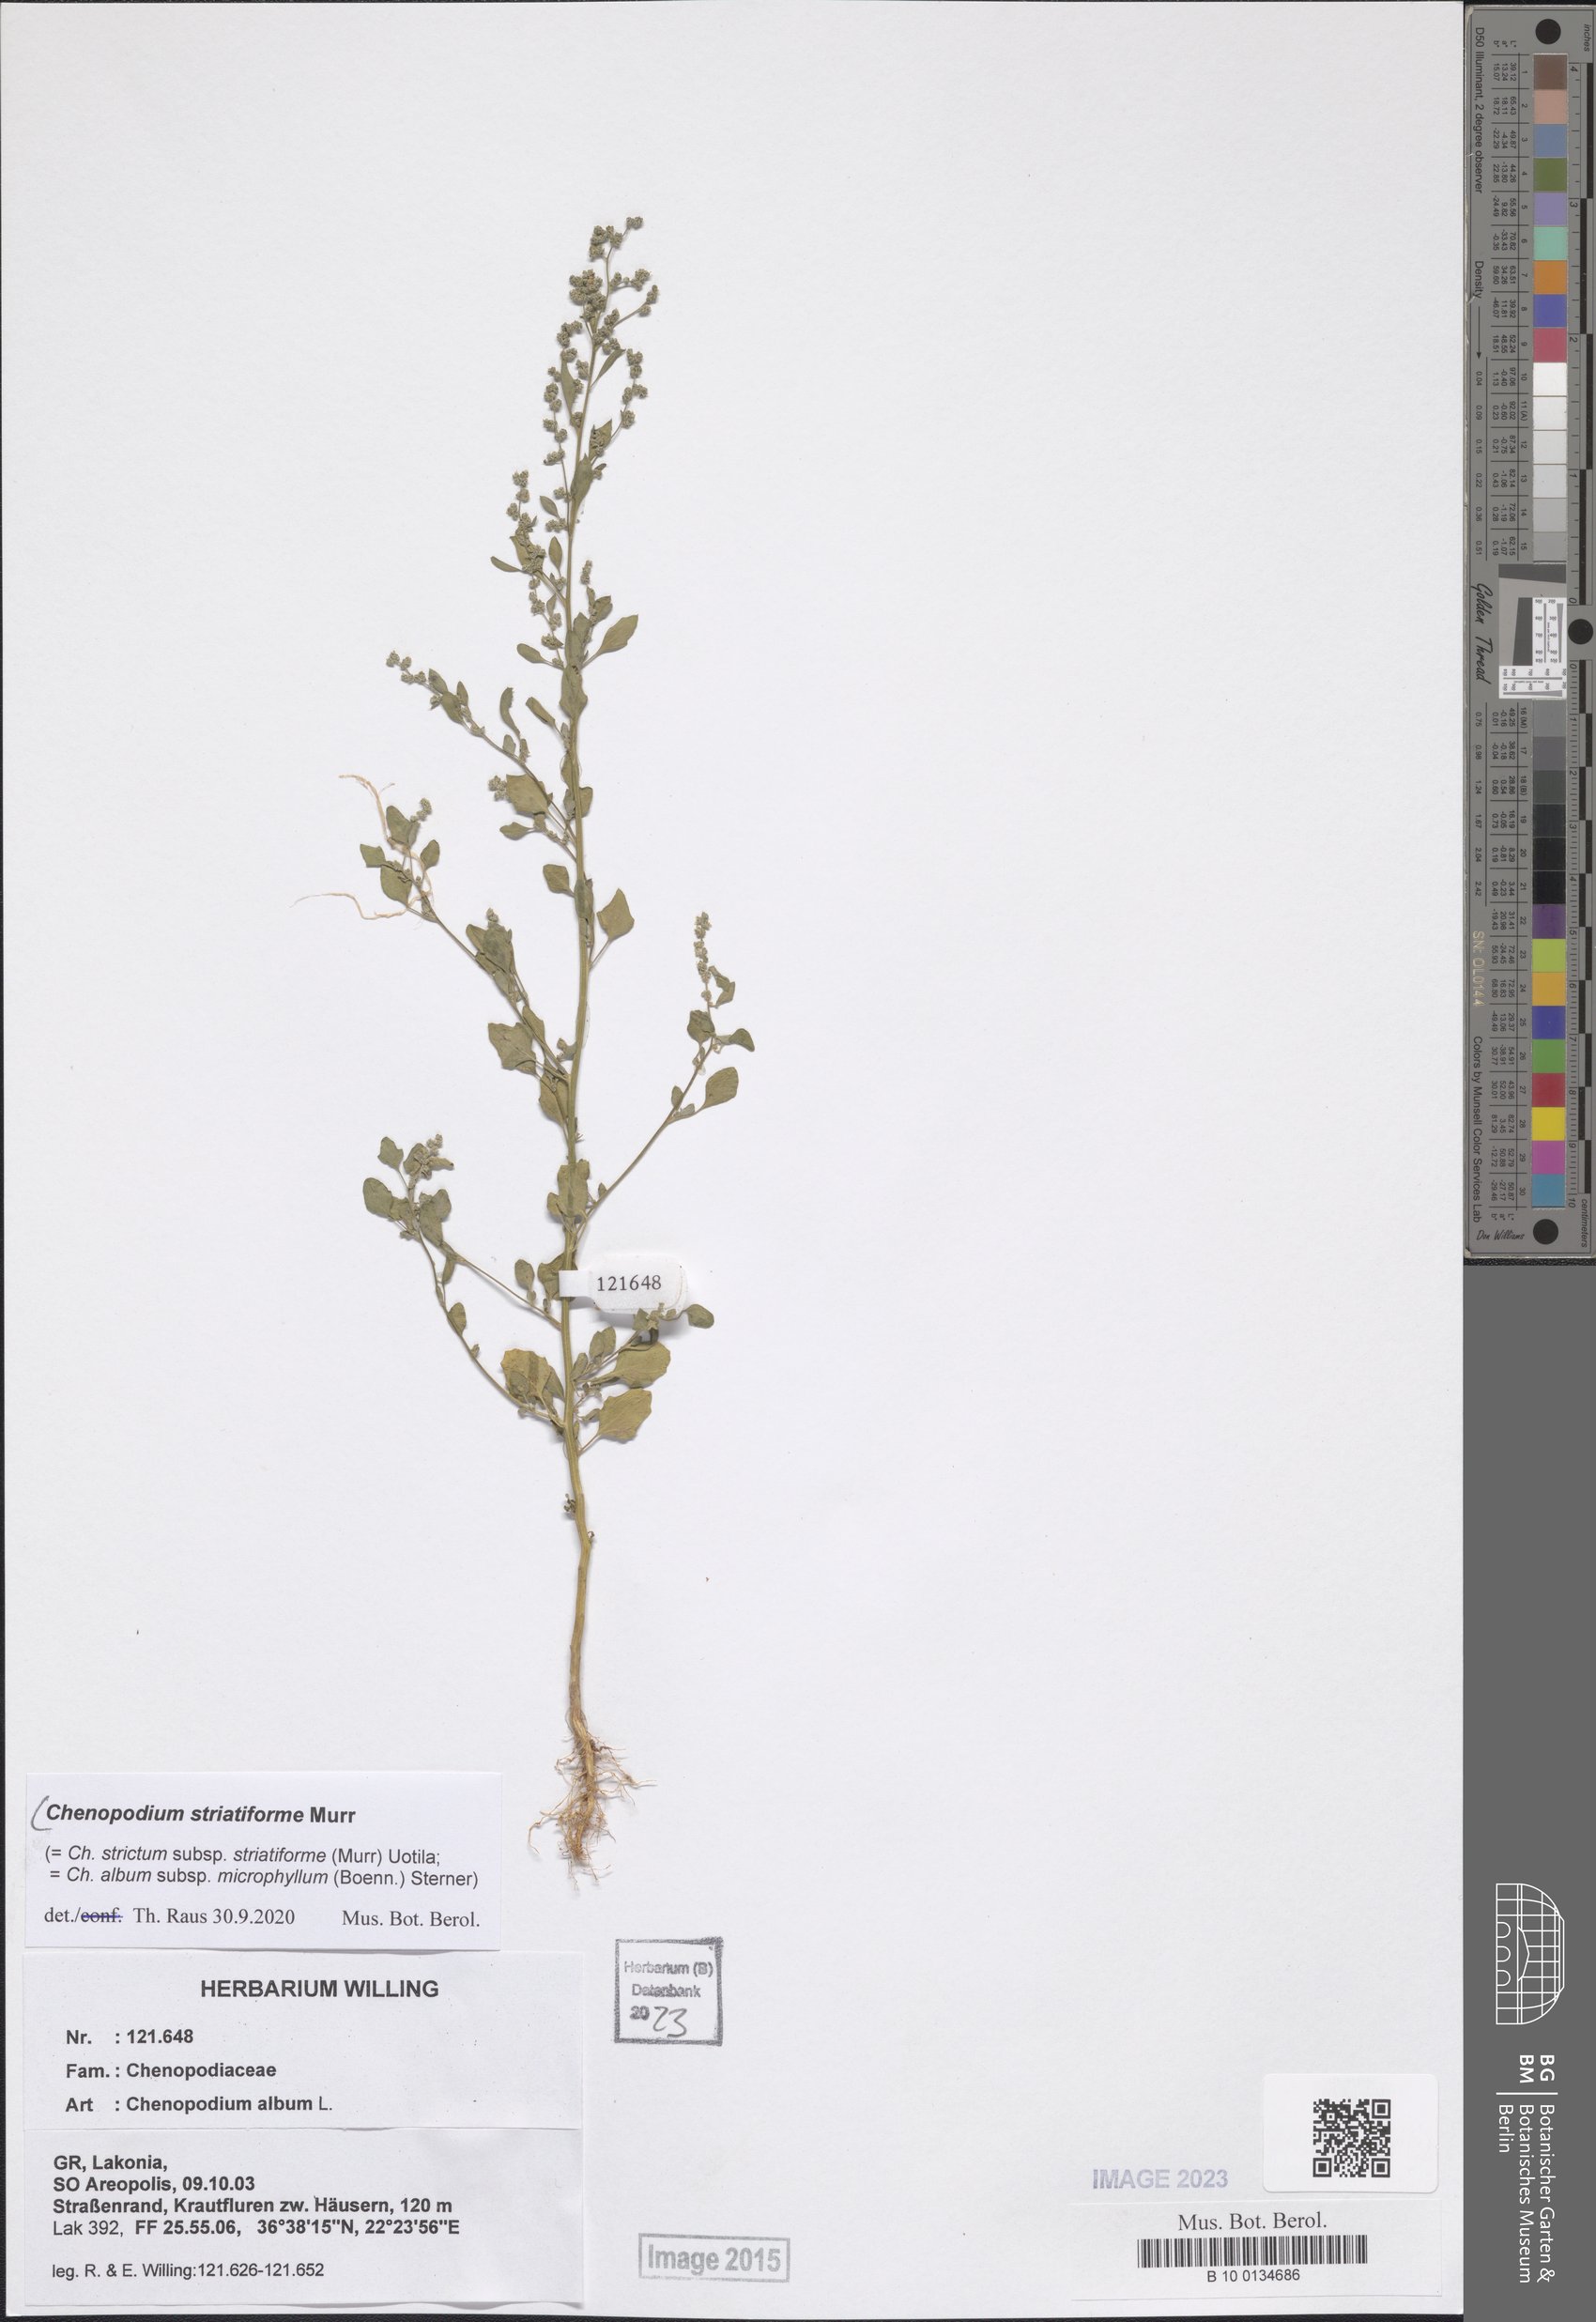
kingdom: Plantae
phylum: Tracheophyta
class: Magnoliopsida
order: Caryophyllales
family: Amaranthaceae
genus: Chenopodium
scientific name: Chenopodium striatiforme
